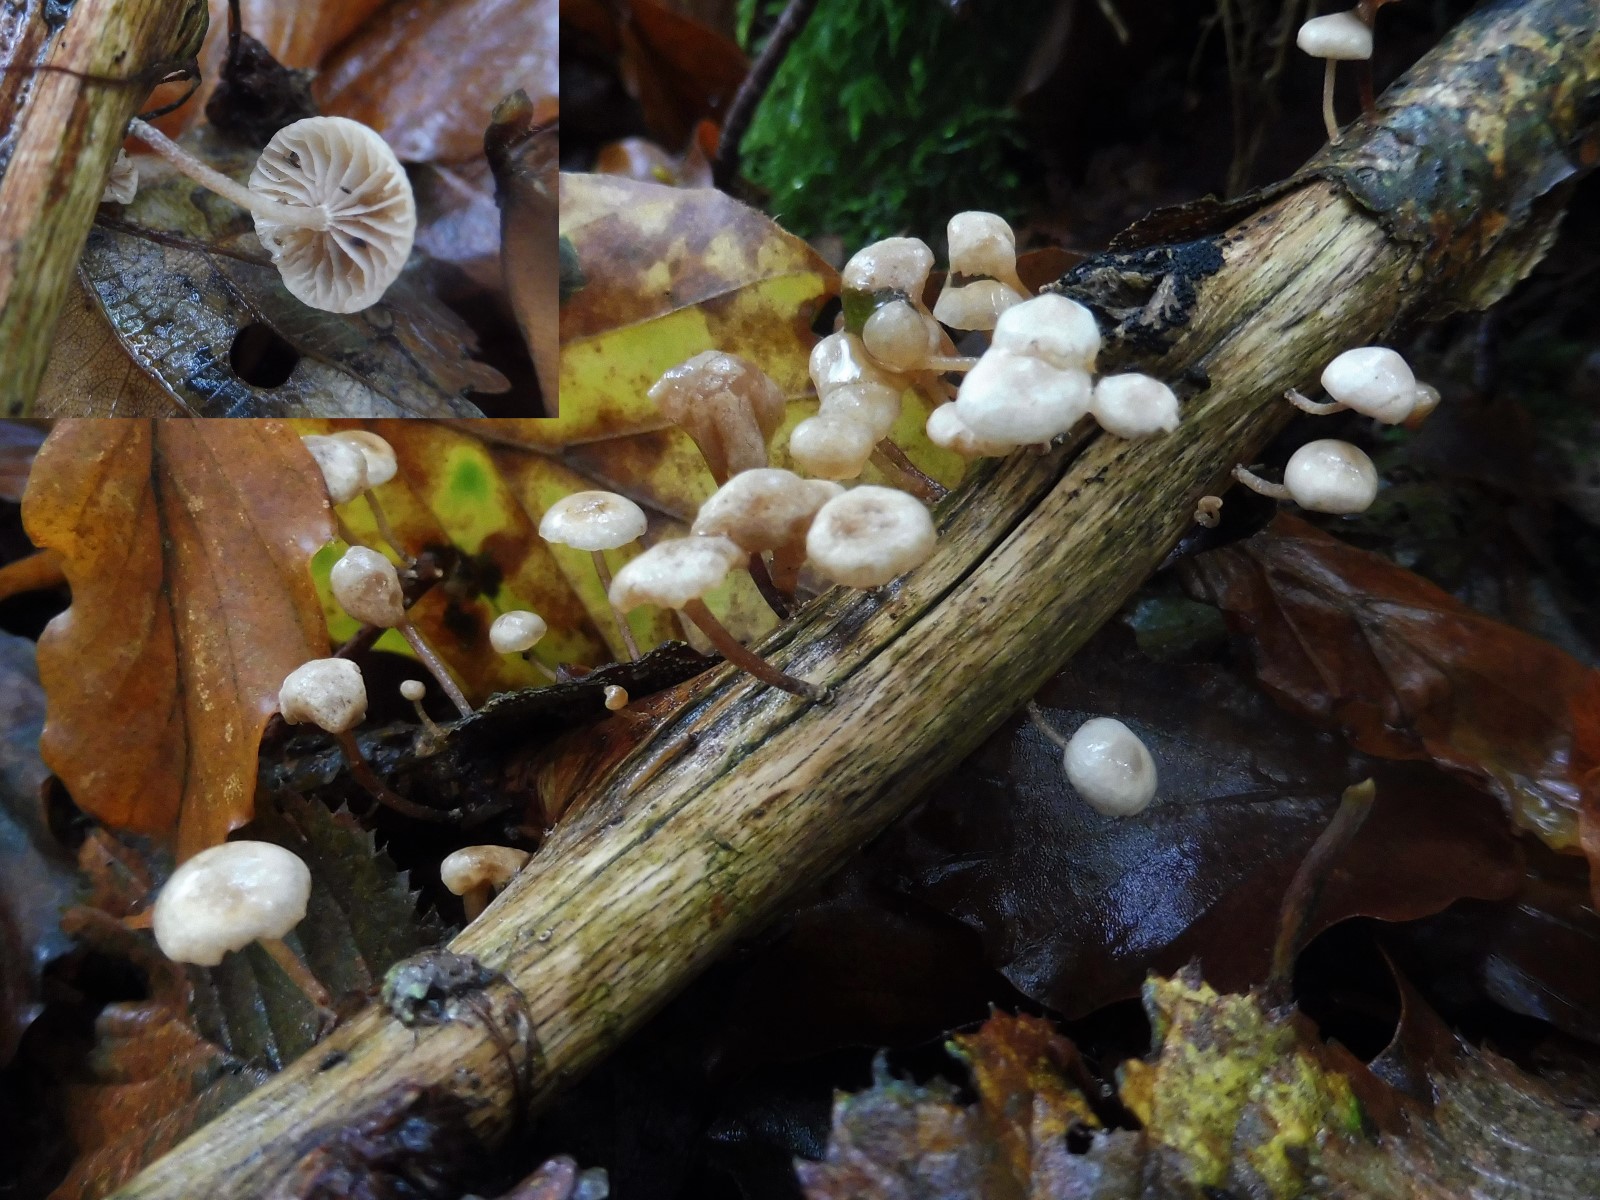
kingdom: Fungi
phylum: Basidiomycota
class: Agaricomycetes
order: Agaricales
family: Omphalotaceae
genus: Collybiopsis
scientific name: Collybiopsis ramealis
